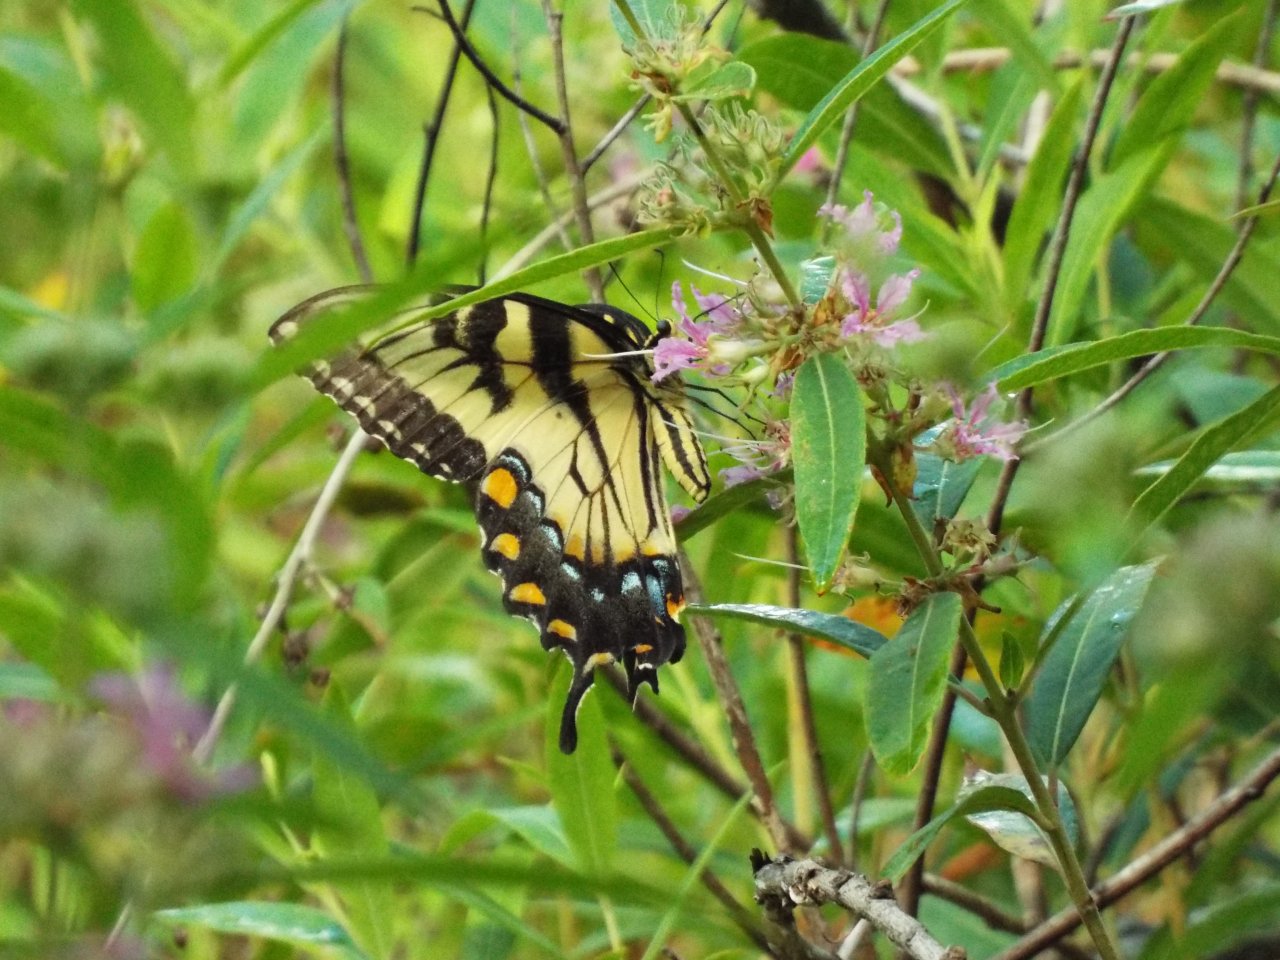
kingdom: Animalia
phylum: Arthropoda
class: Insecta
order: Lepidoptera
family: Papilionidae
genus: Pterourus
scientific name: Pterourus glaucus
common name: Eastern Tiger Swallowtail
